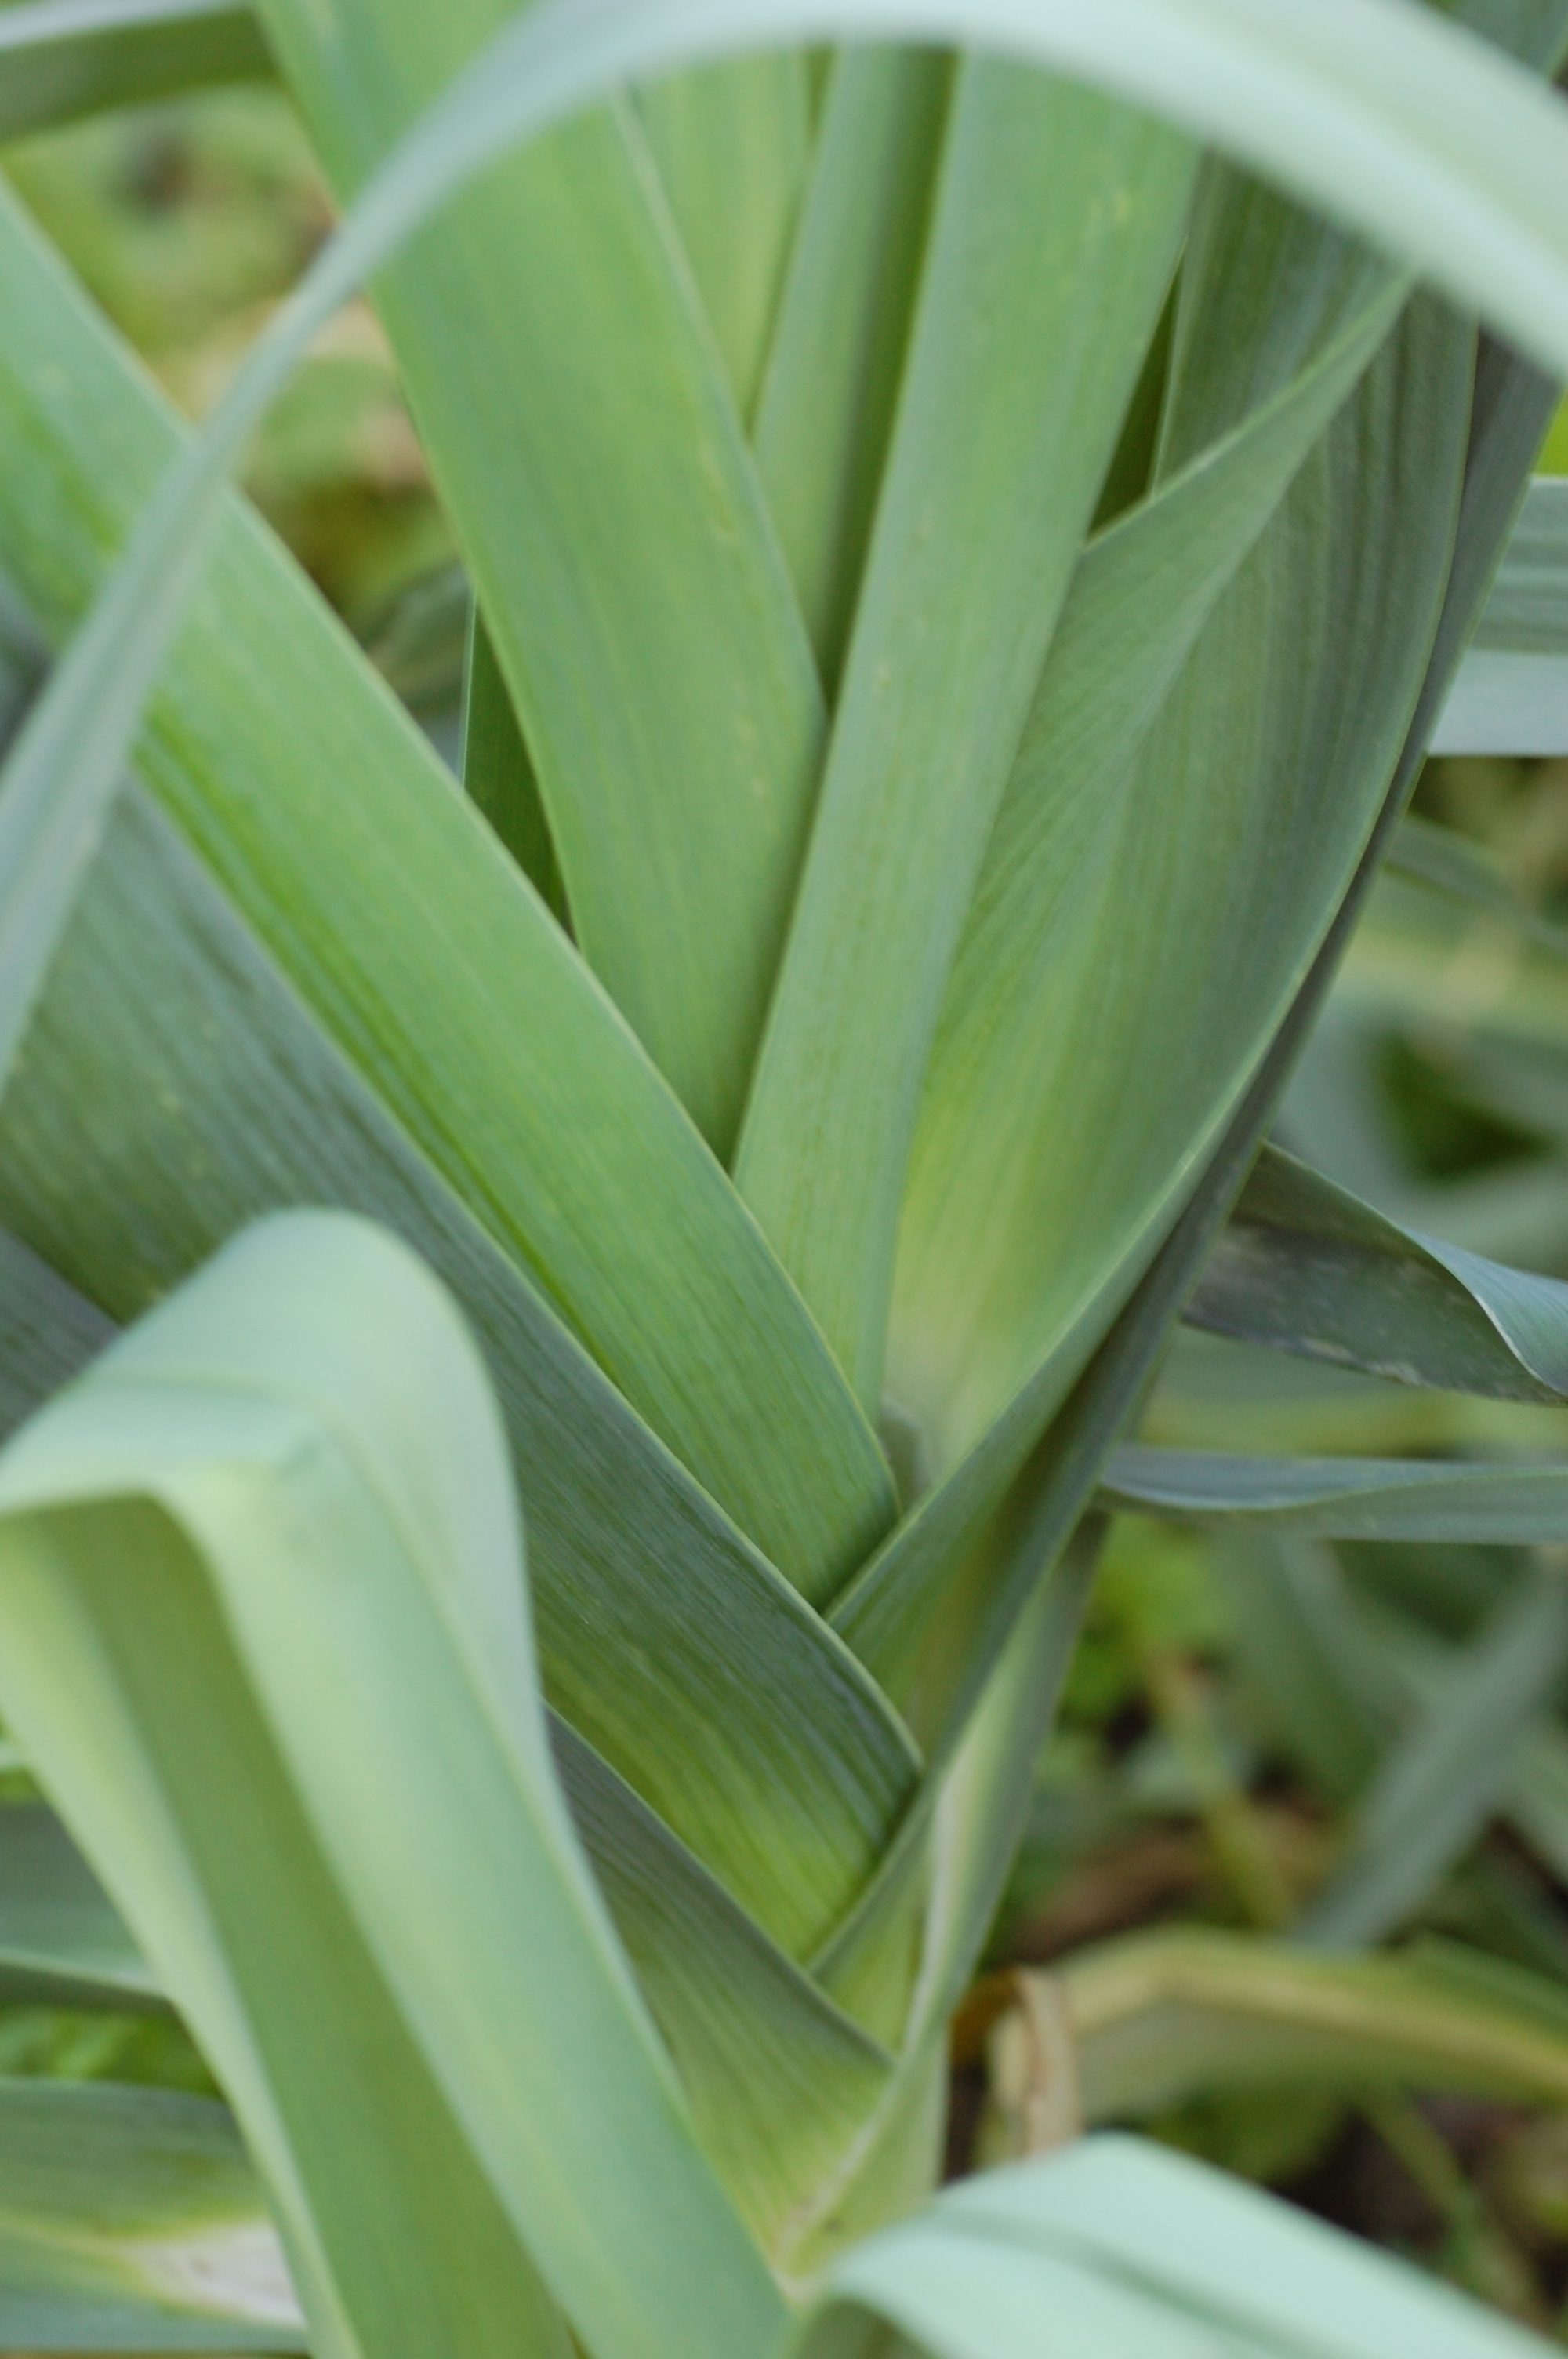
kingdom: Plantae
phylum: Tracheophyta
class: Liliopsida
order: Asparagales
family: Amaryllidaceae
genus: Allium
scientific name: Allium ampeloprasum
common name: Wild leek
